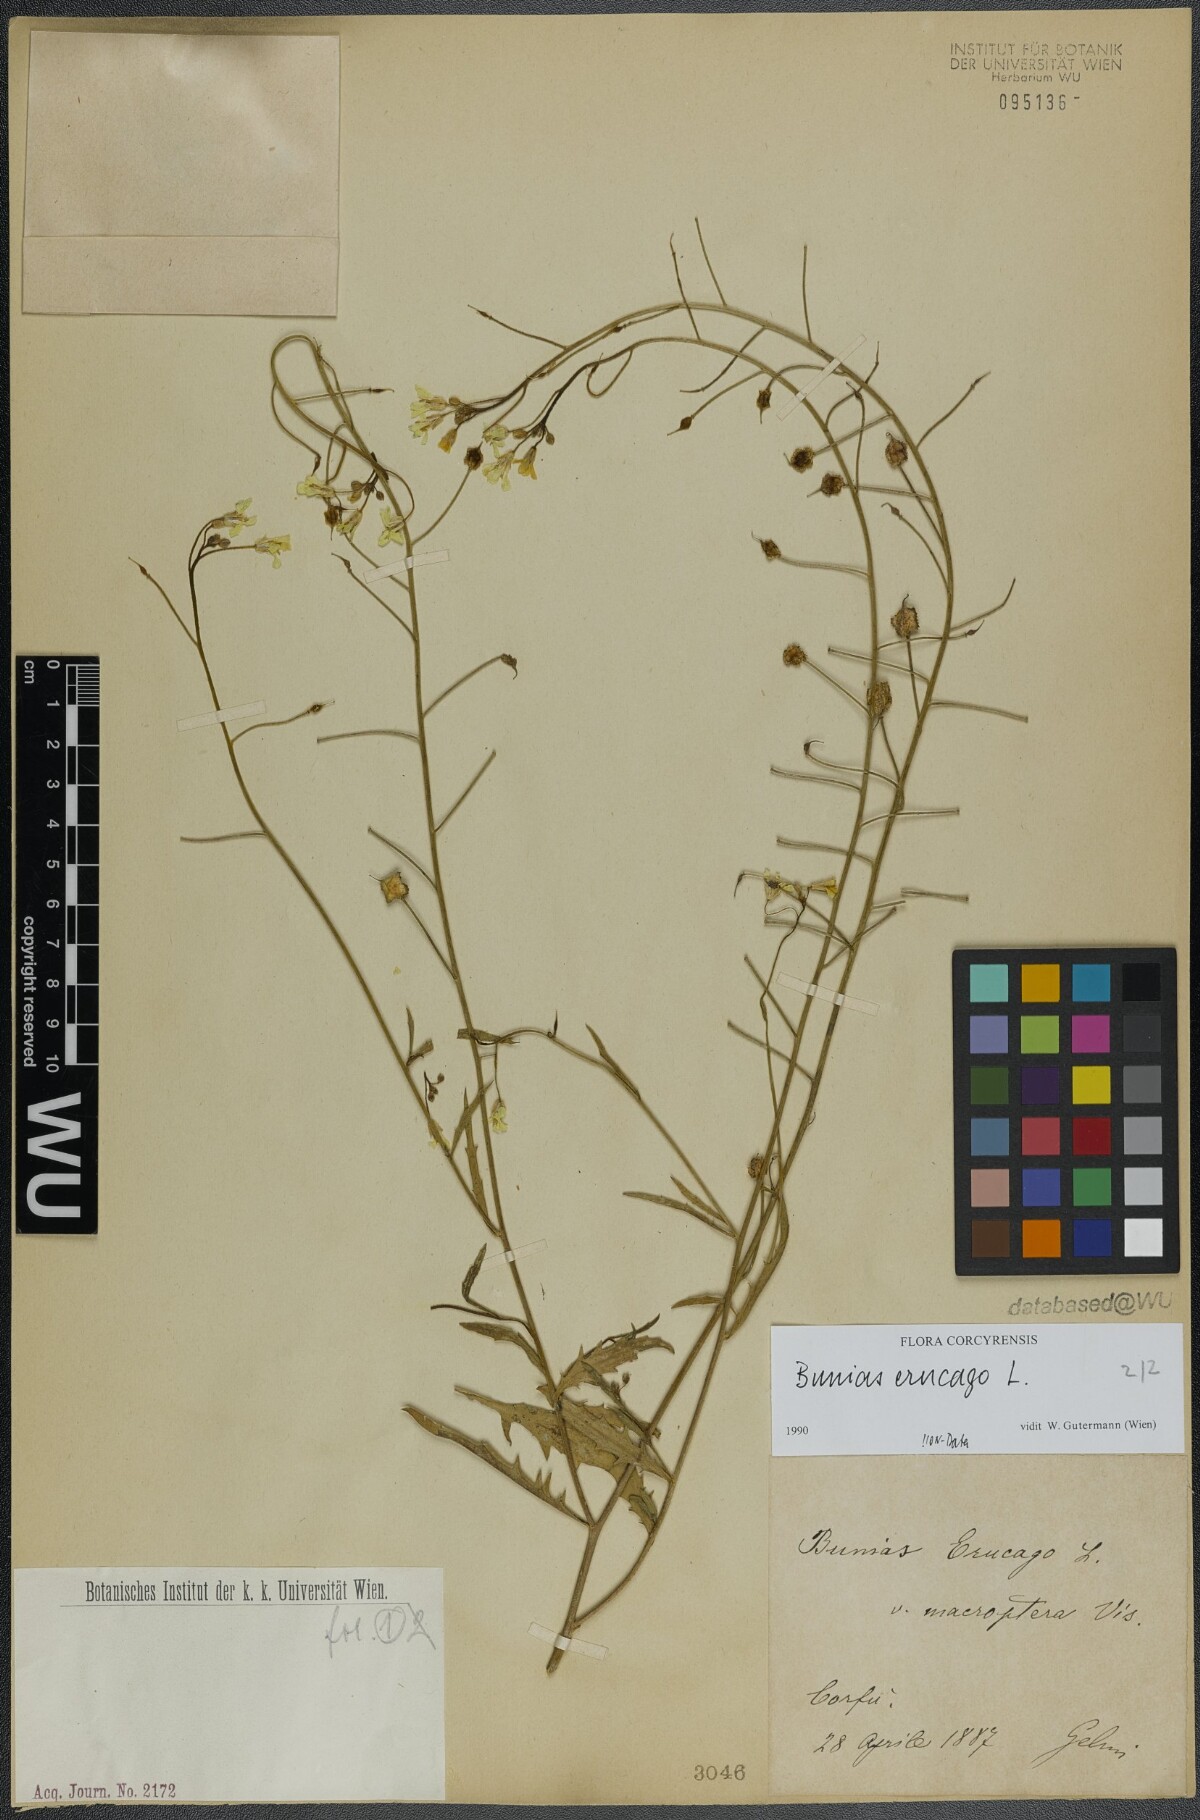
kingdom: Plantae
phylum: Tracheophyta
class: Magnoliopsida
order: Brassicales
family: Brassicaceae
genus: Bunias
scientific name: Bunias erucago
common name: Southern warty-cabbage
